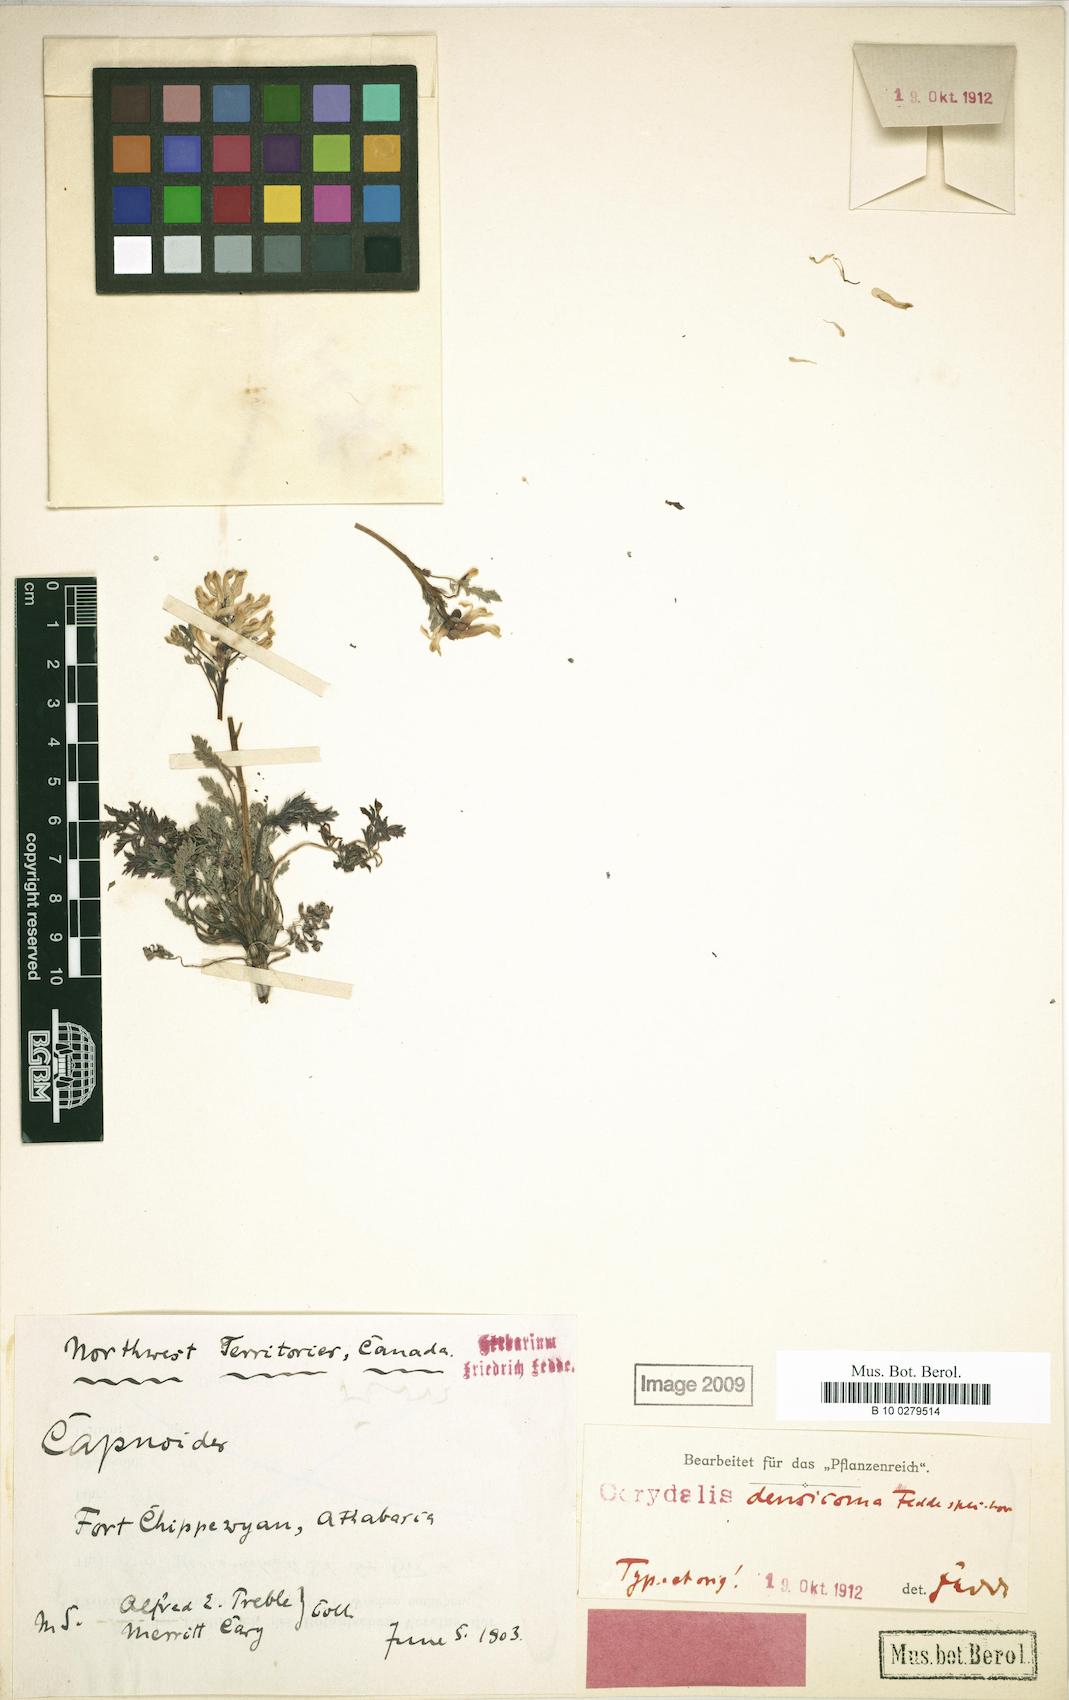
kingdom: Plantae
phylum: Tracheophyta
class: Magnoliopsida
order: Ranunculales
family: Papaveraceae
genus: Corydalis
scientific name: Corydalis aurea
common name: Golden corydalis
